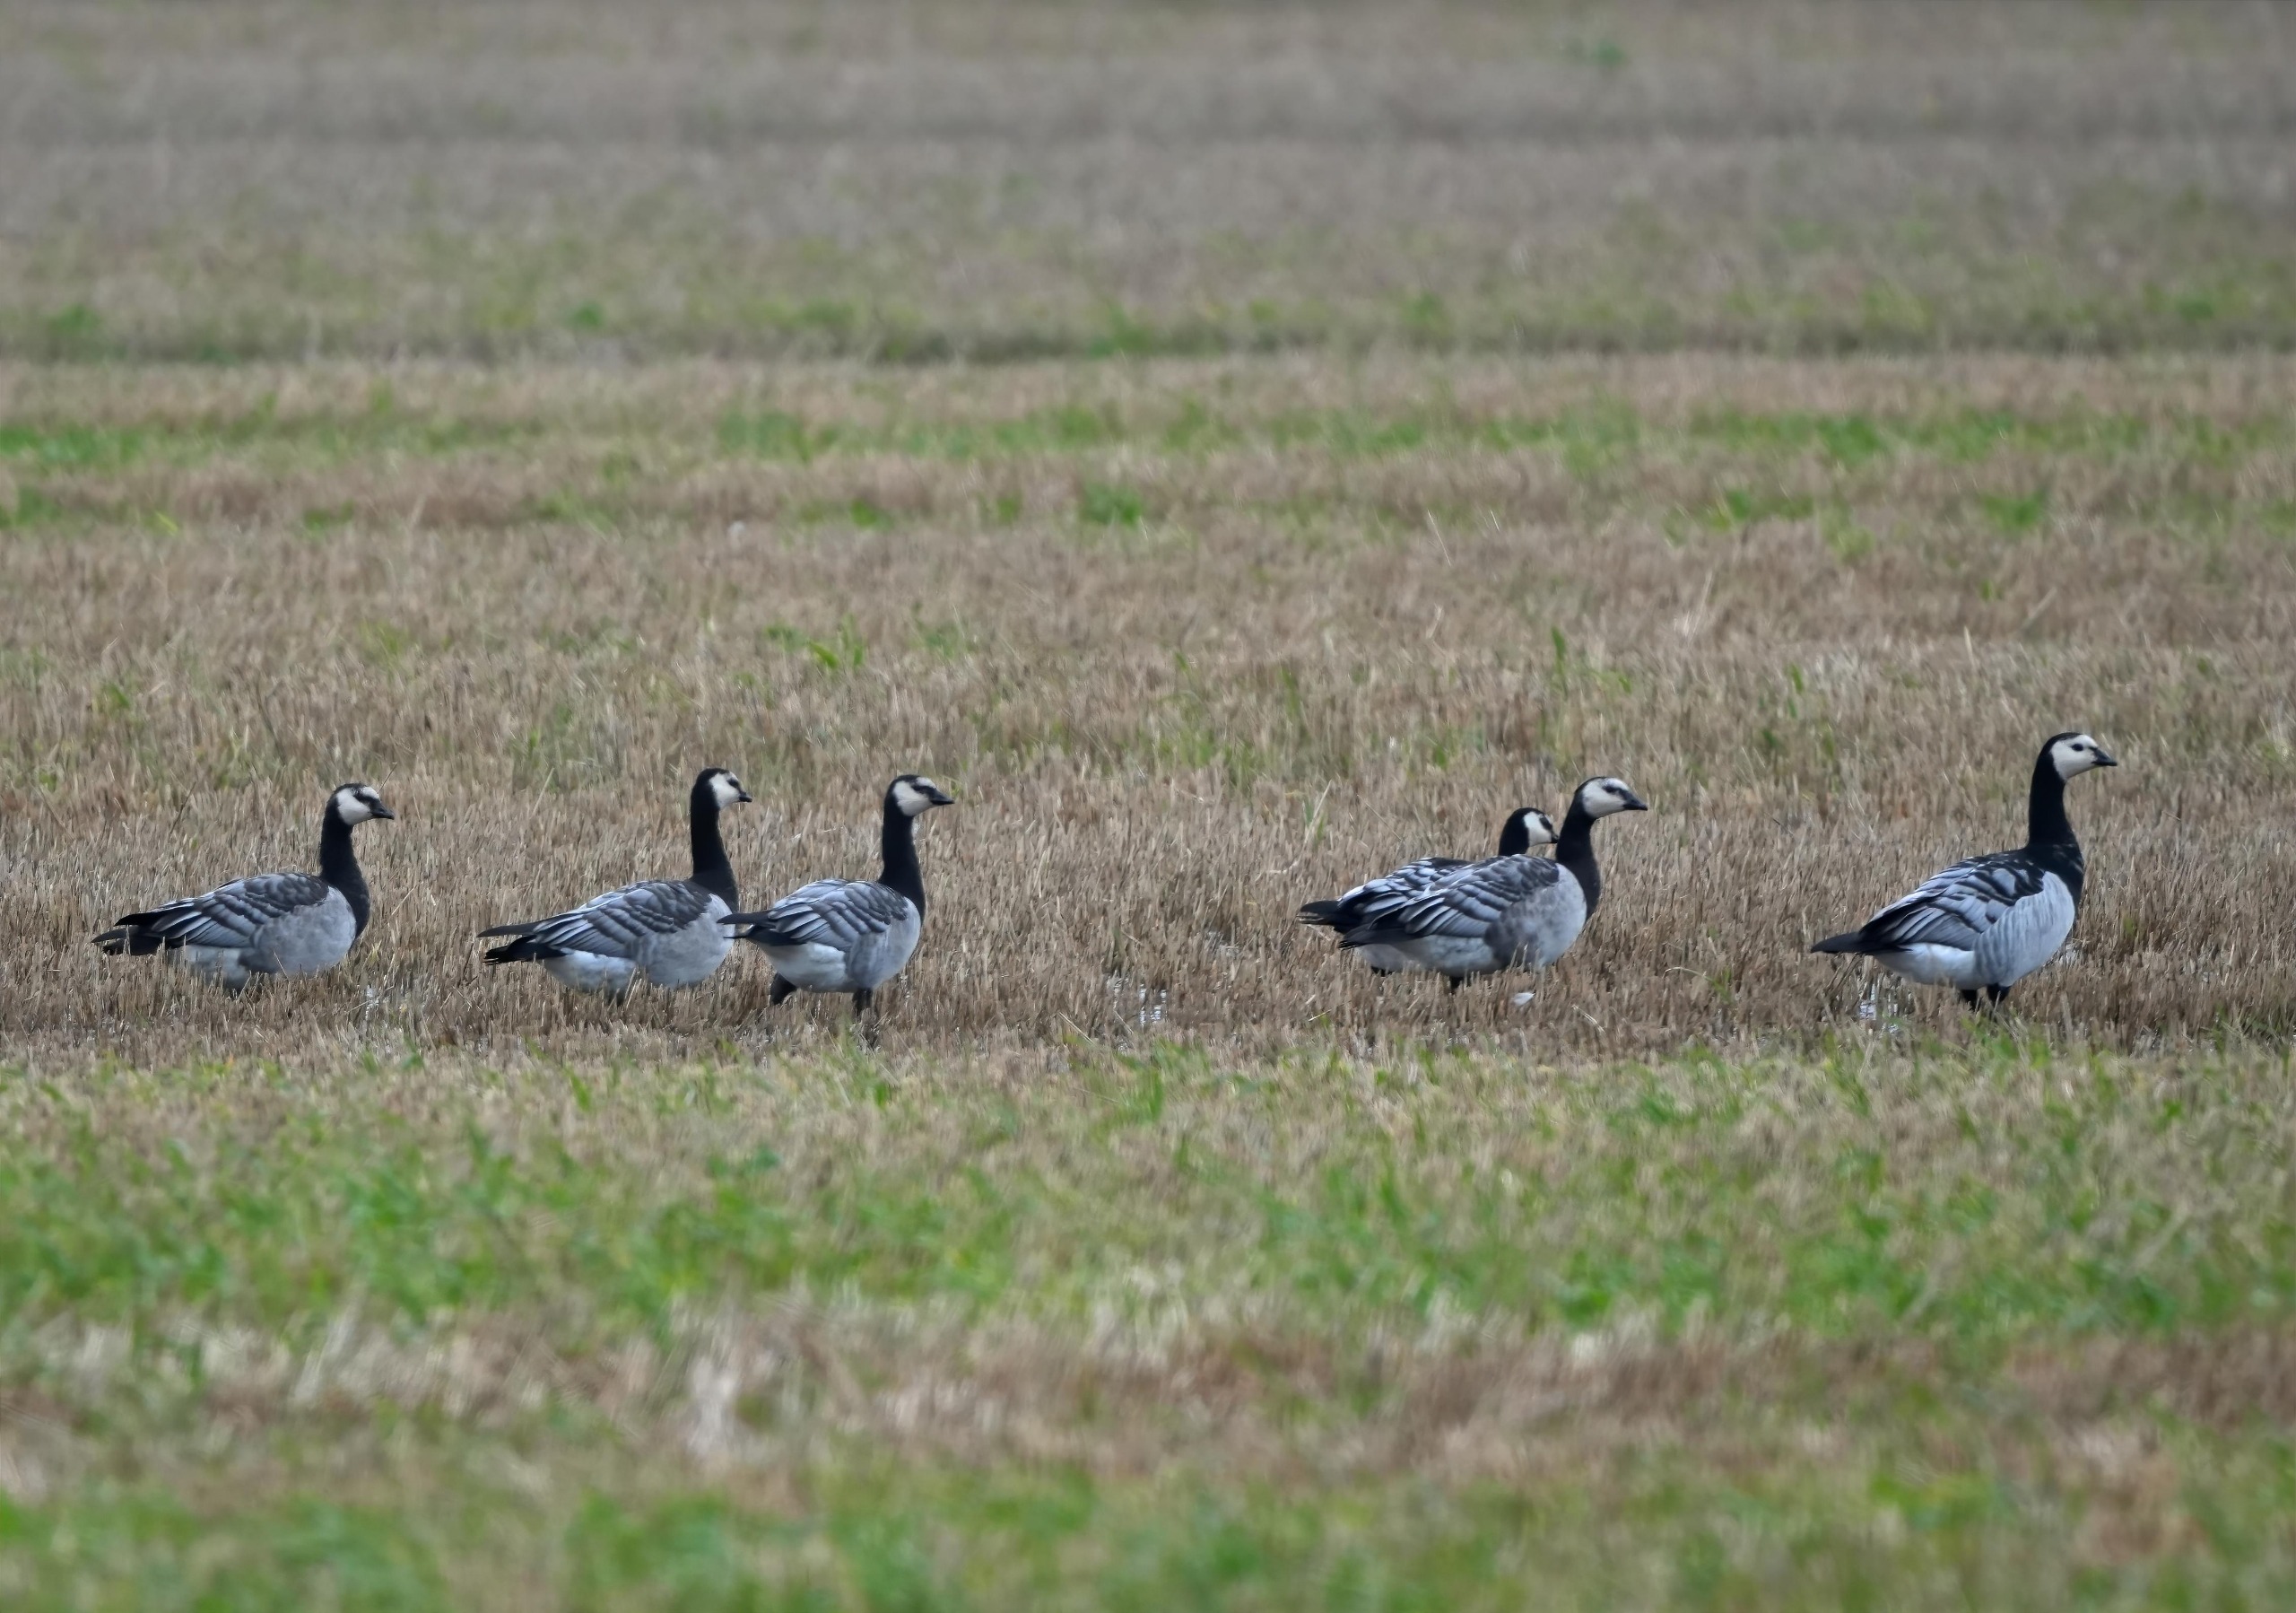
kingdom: Animalia
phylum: Chordata
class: Aves
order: Anseriformes
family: Anatidae
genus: Branta
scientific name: Branta leucopsis
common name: Bramgås
